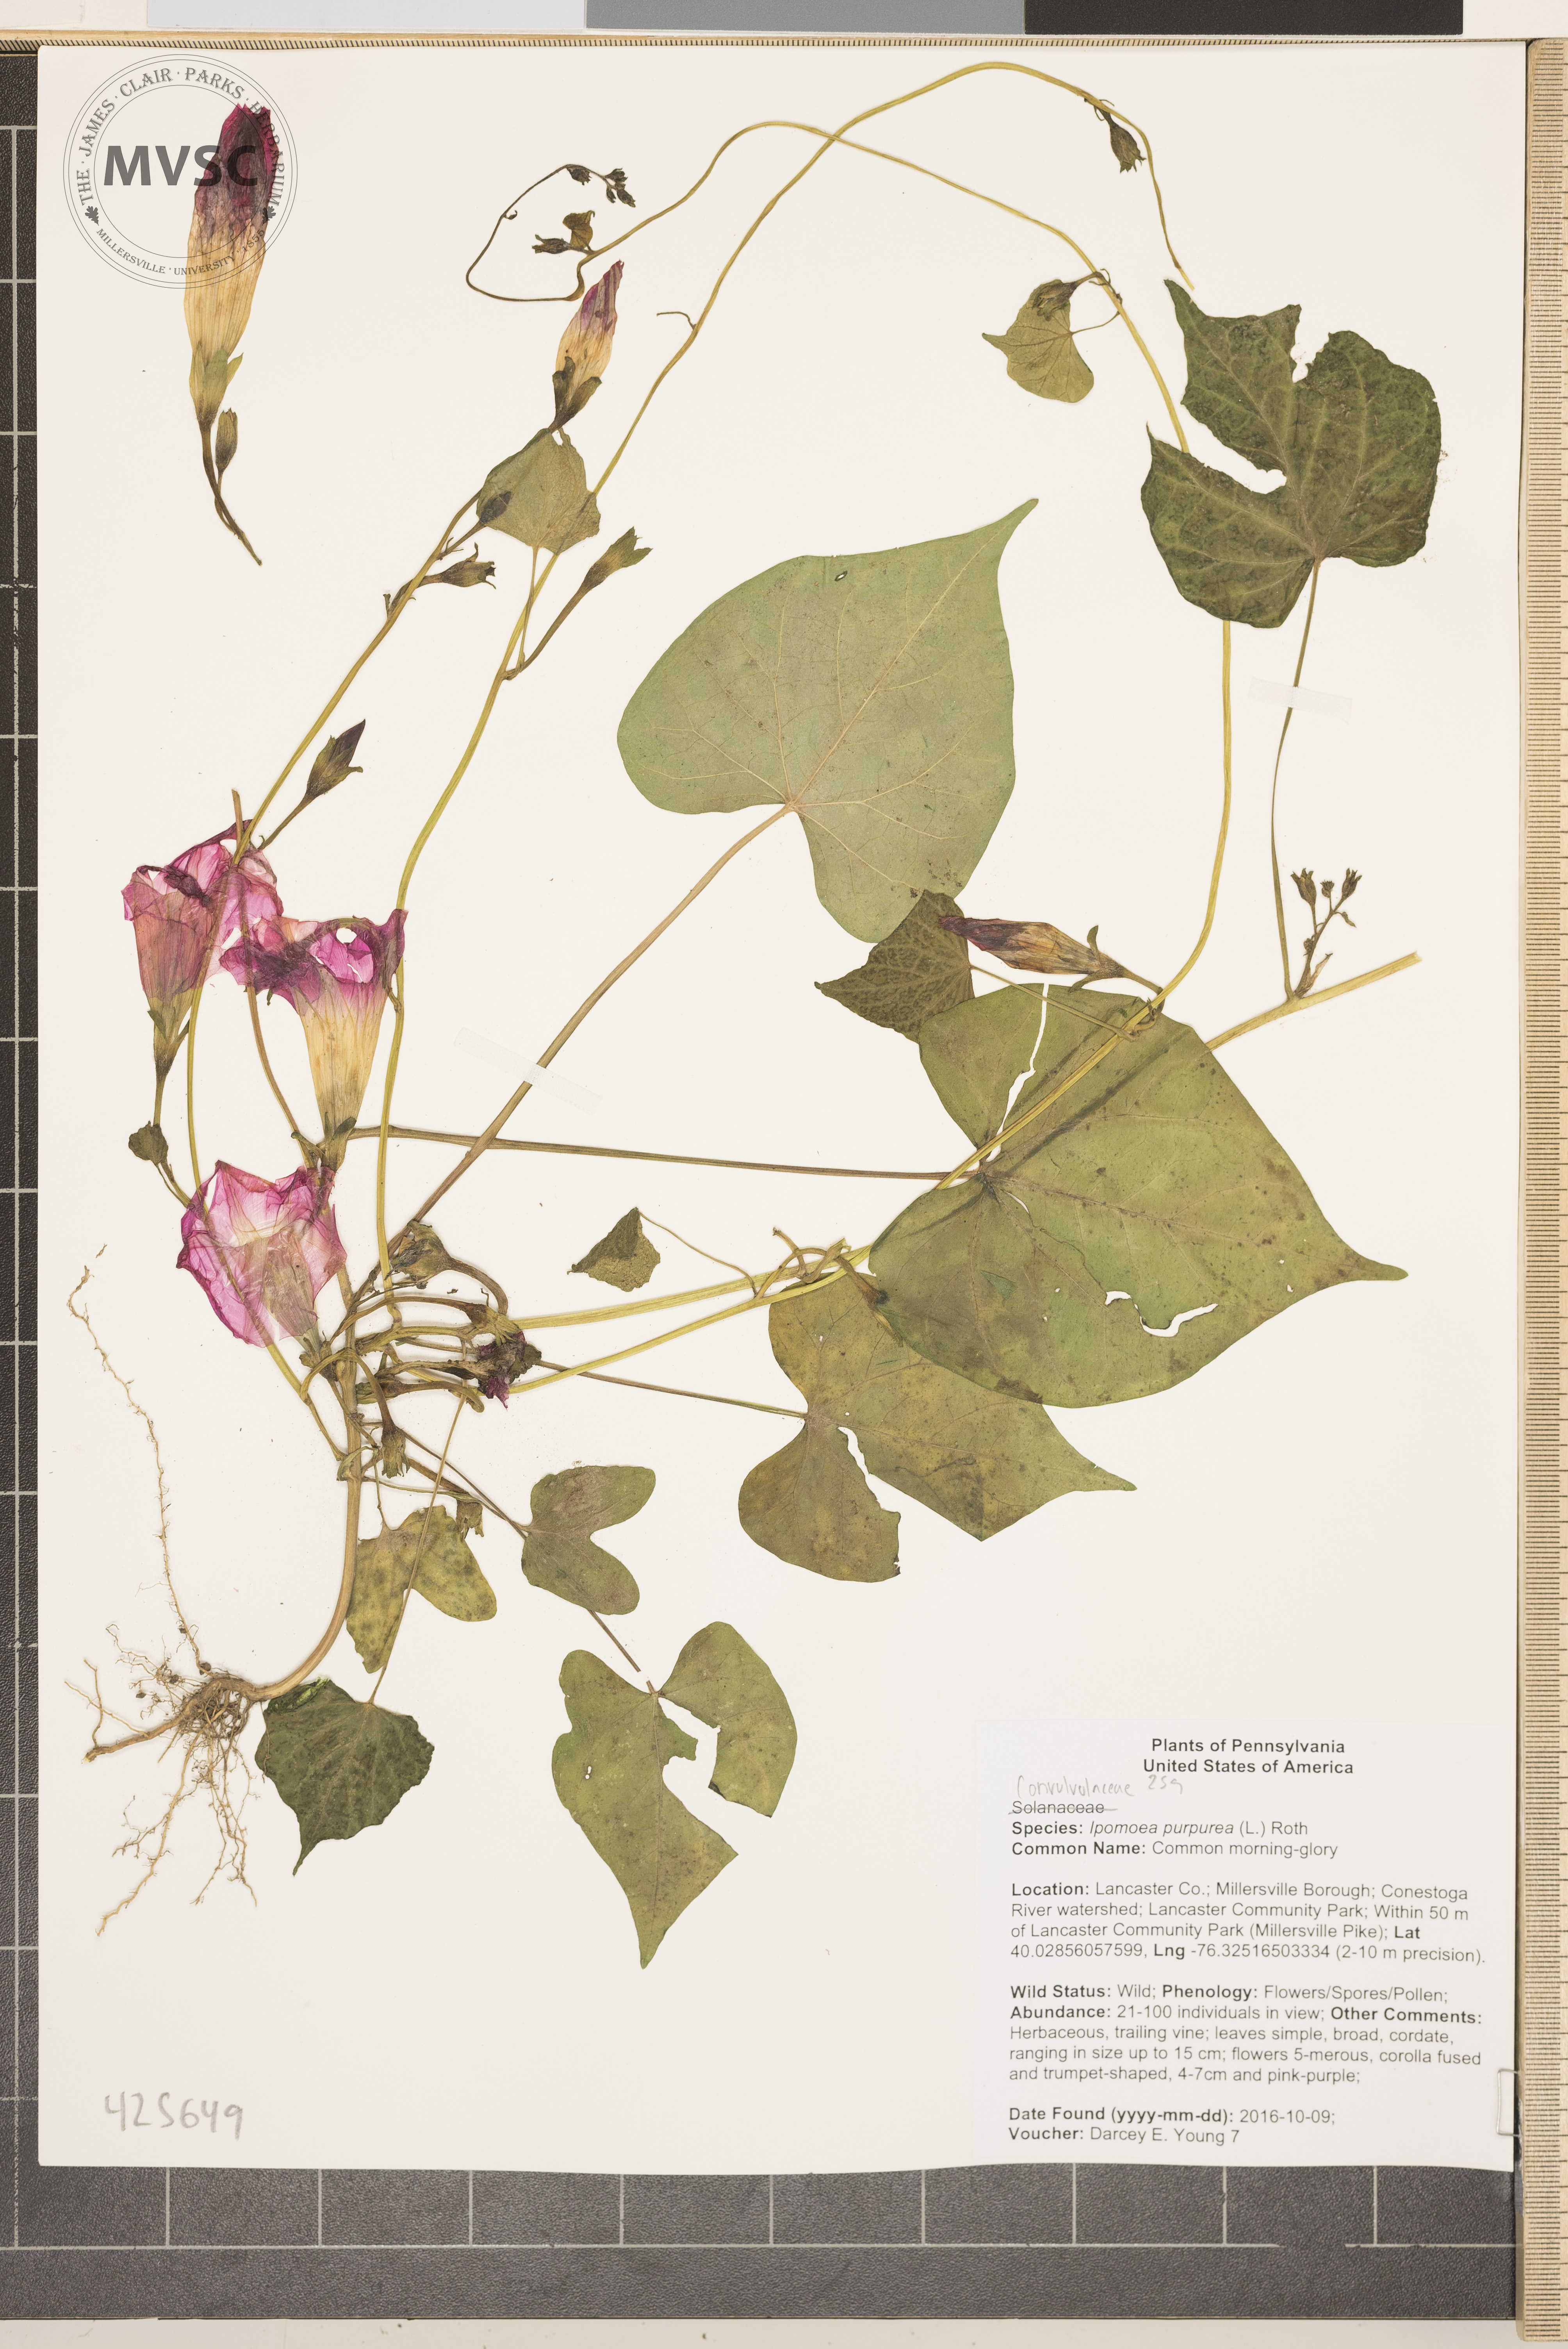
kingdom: Plantae
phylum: Tracheophyta
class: Magnoliopsida
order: Solanales
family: Convolvulaceae
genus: Ipomoea
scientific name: Ipomoea purpurea
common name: Common morning-glory
